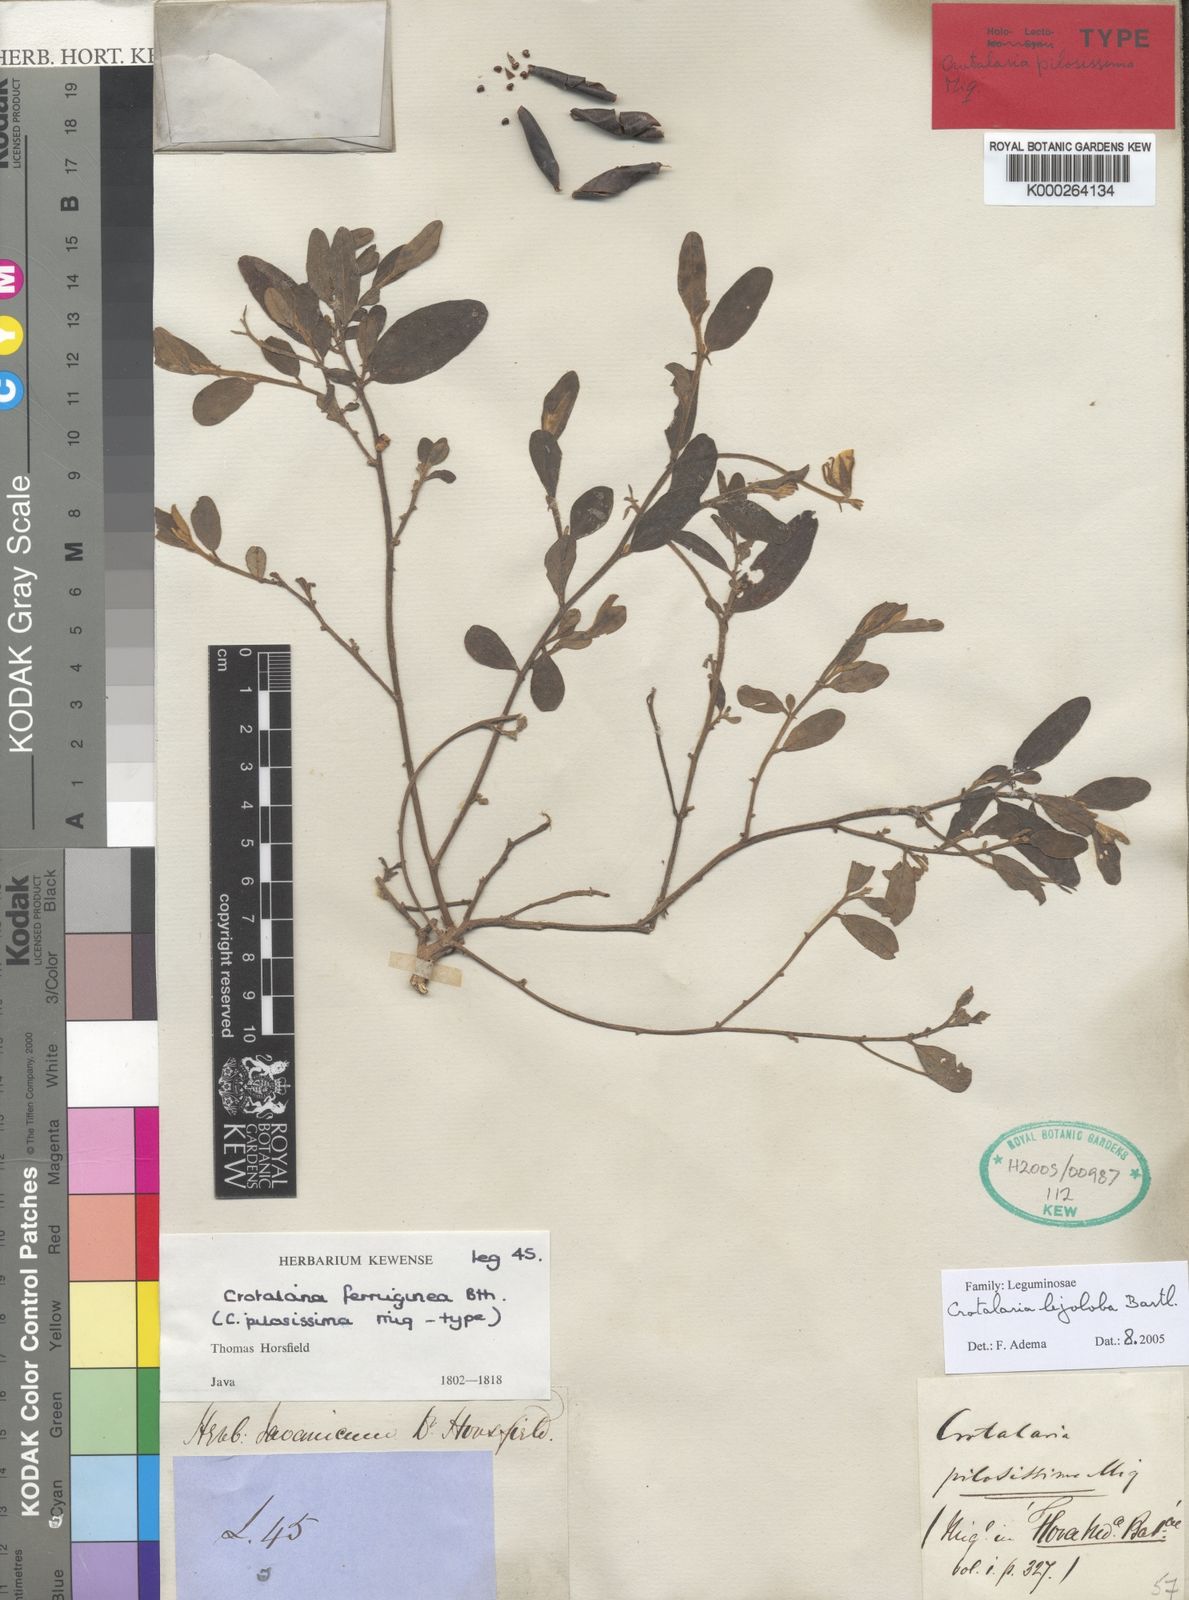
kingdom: Plantae
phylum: Tracheophyta
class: Magnoliopsida
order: Fabales
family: Fabaceae
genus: Crotalaria
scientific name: Crotalaria lejoloba
